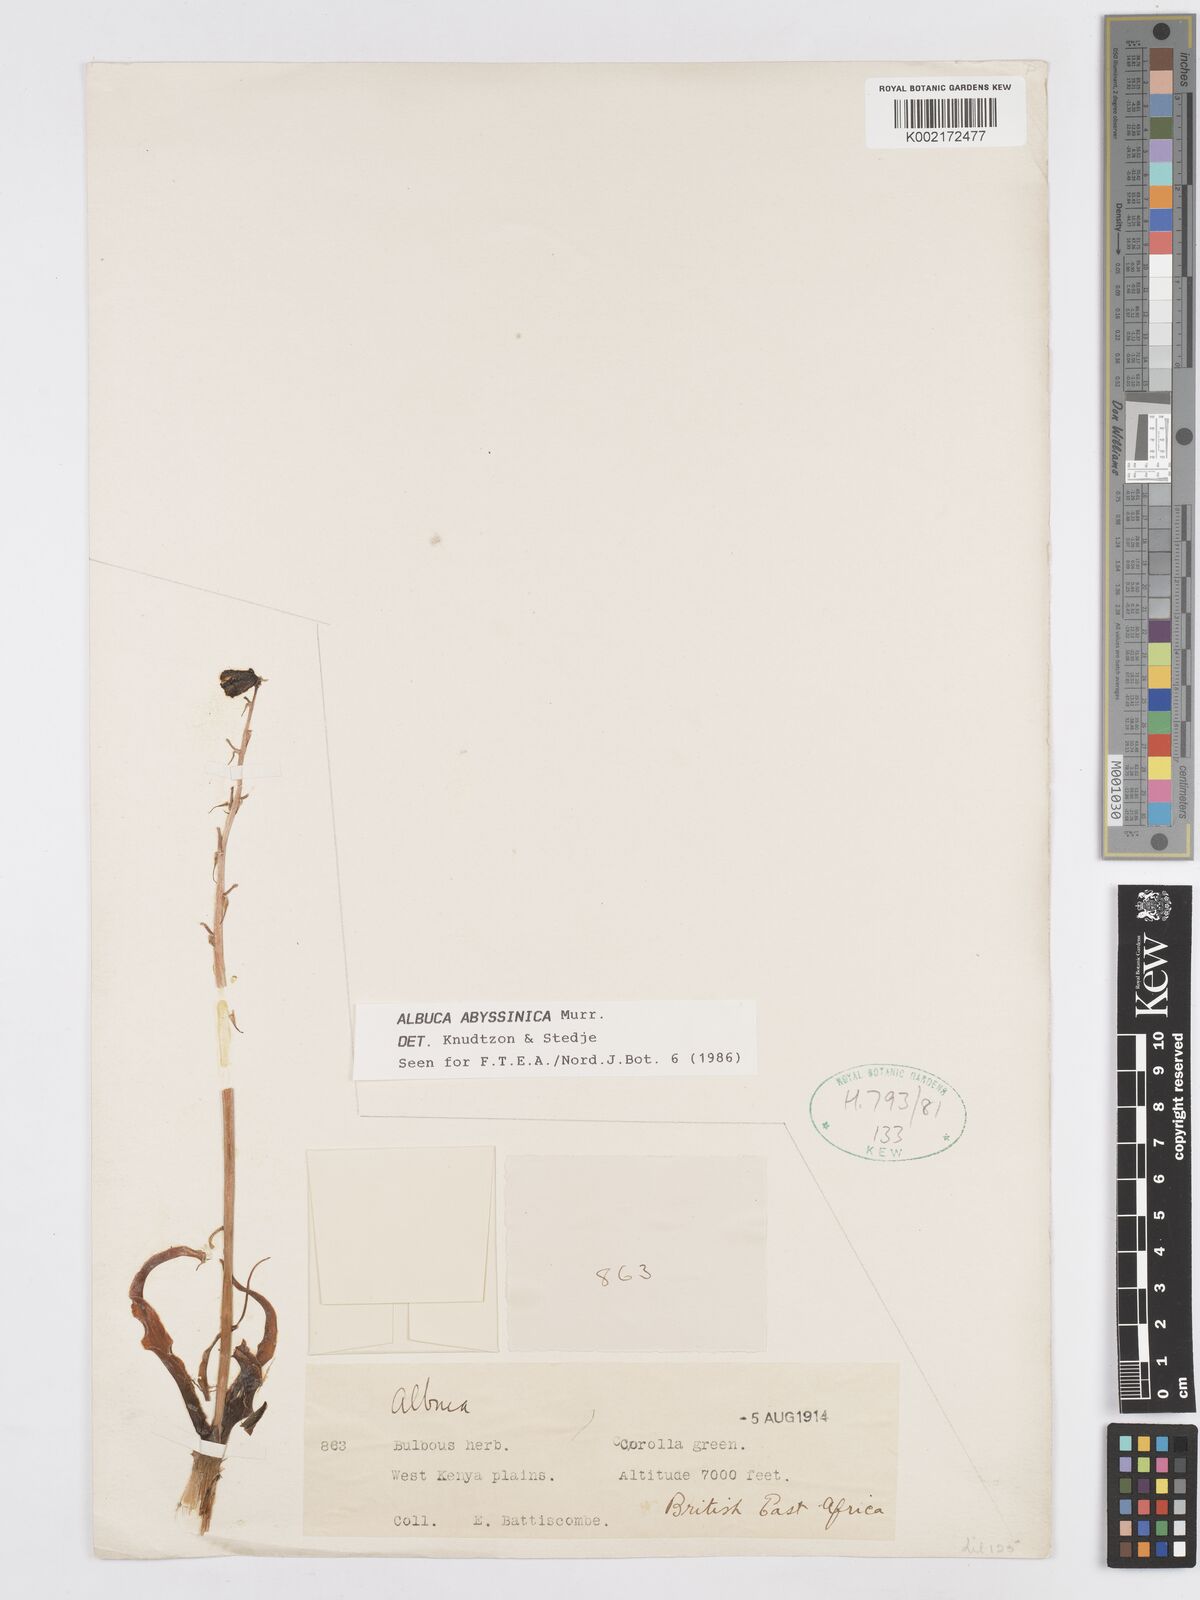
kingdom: Plantae
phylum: Tracheophyta
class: Liliopsida
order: Asparagales
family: Asparagaceae
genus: Albuca
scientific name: Albuca abyssinica
